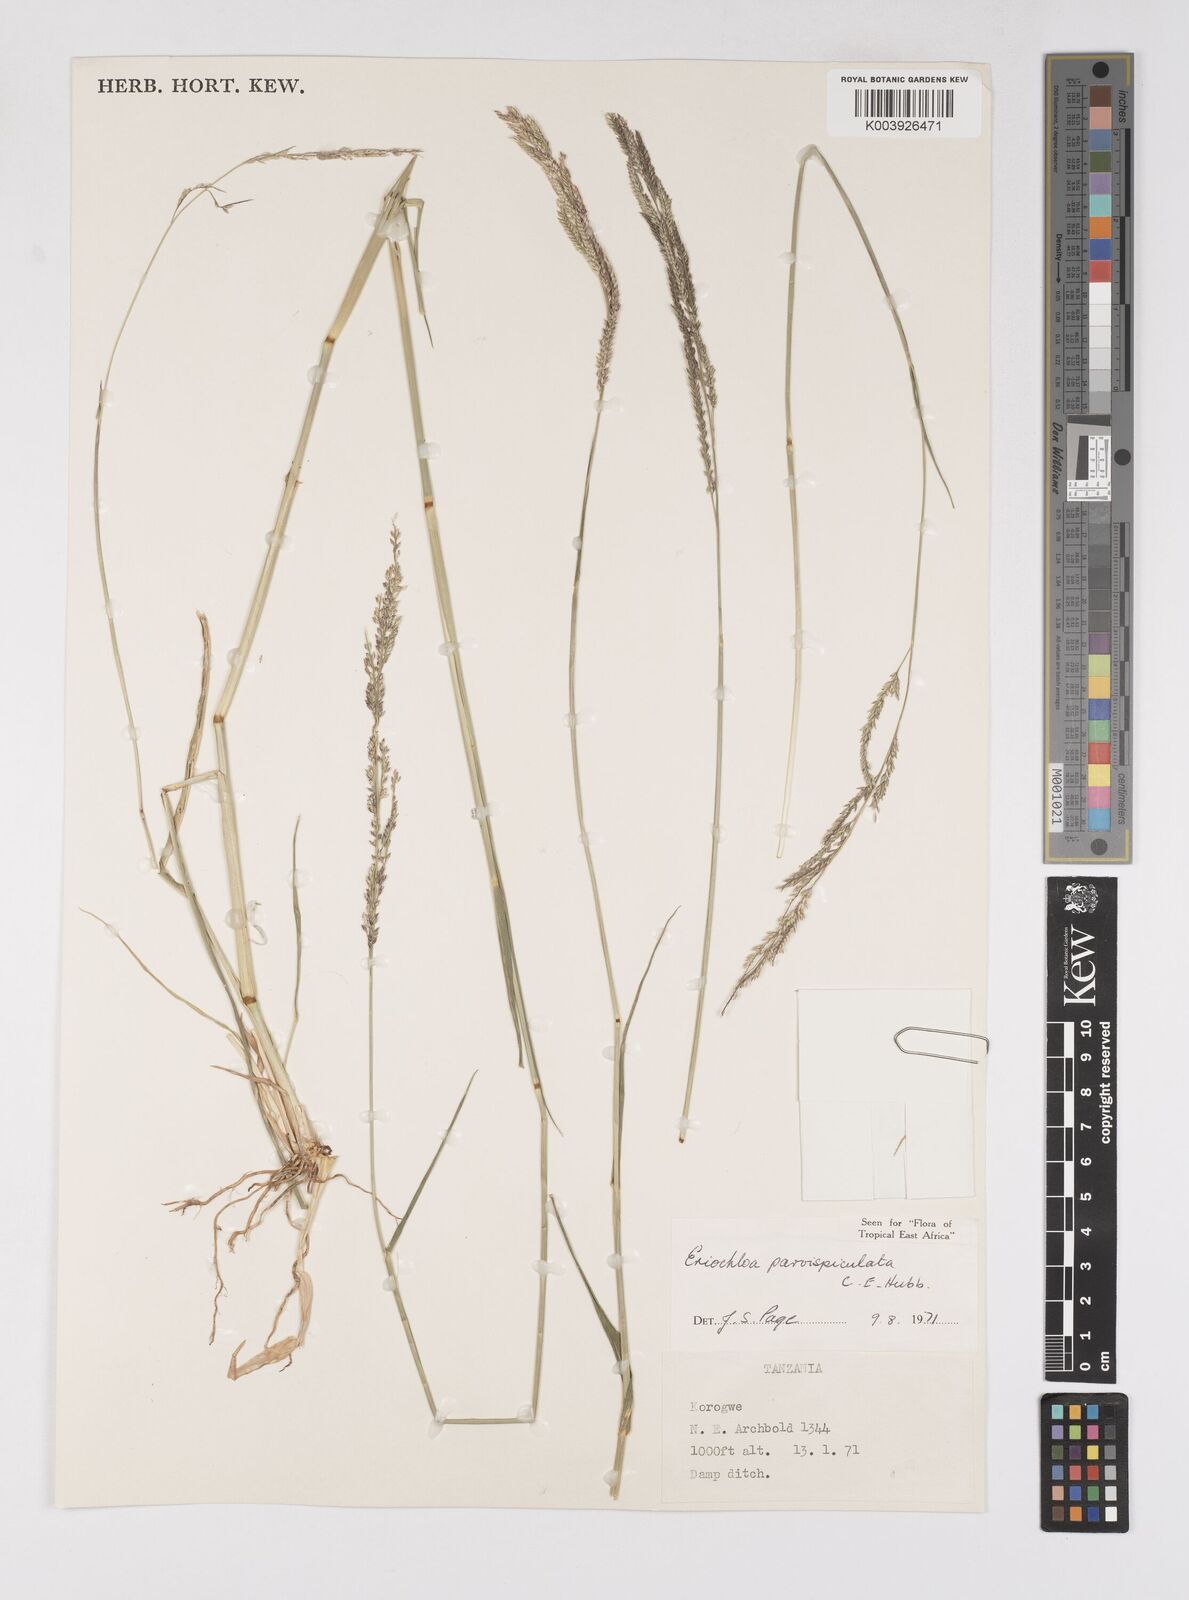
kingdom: Plantae
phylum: Tracheophyta
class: Liliopsida
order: Poales
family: Poaceae
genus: Eriochloa
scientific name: Eriochloa parvispiculata
